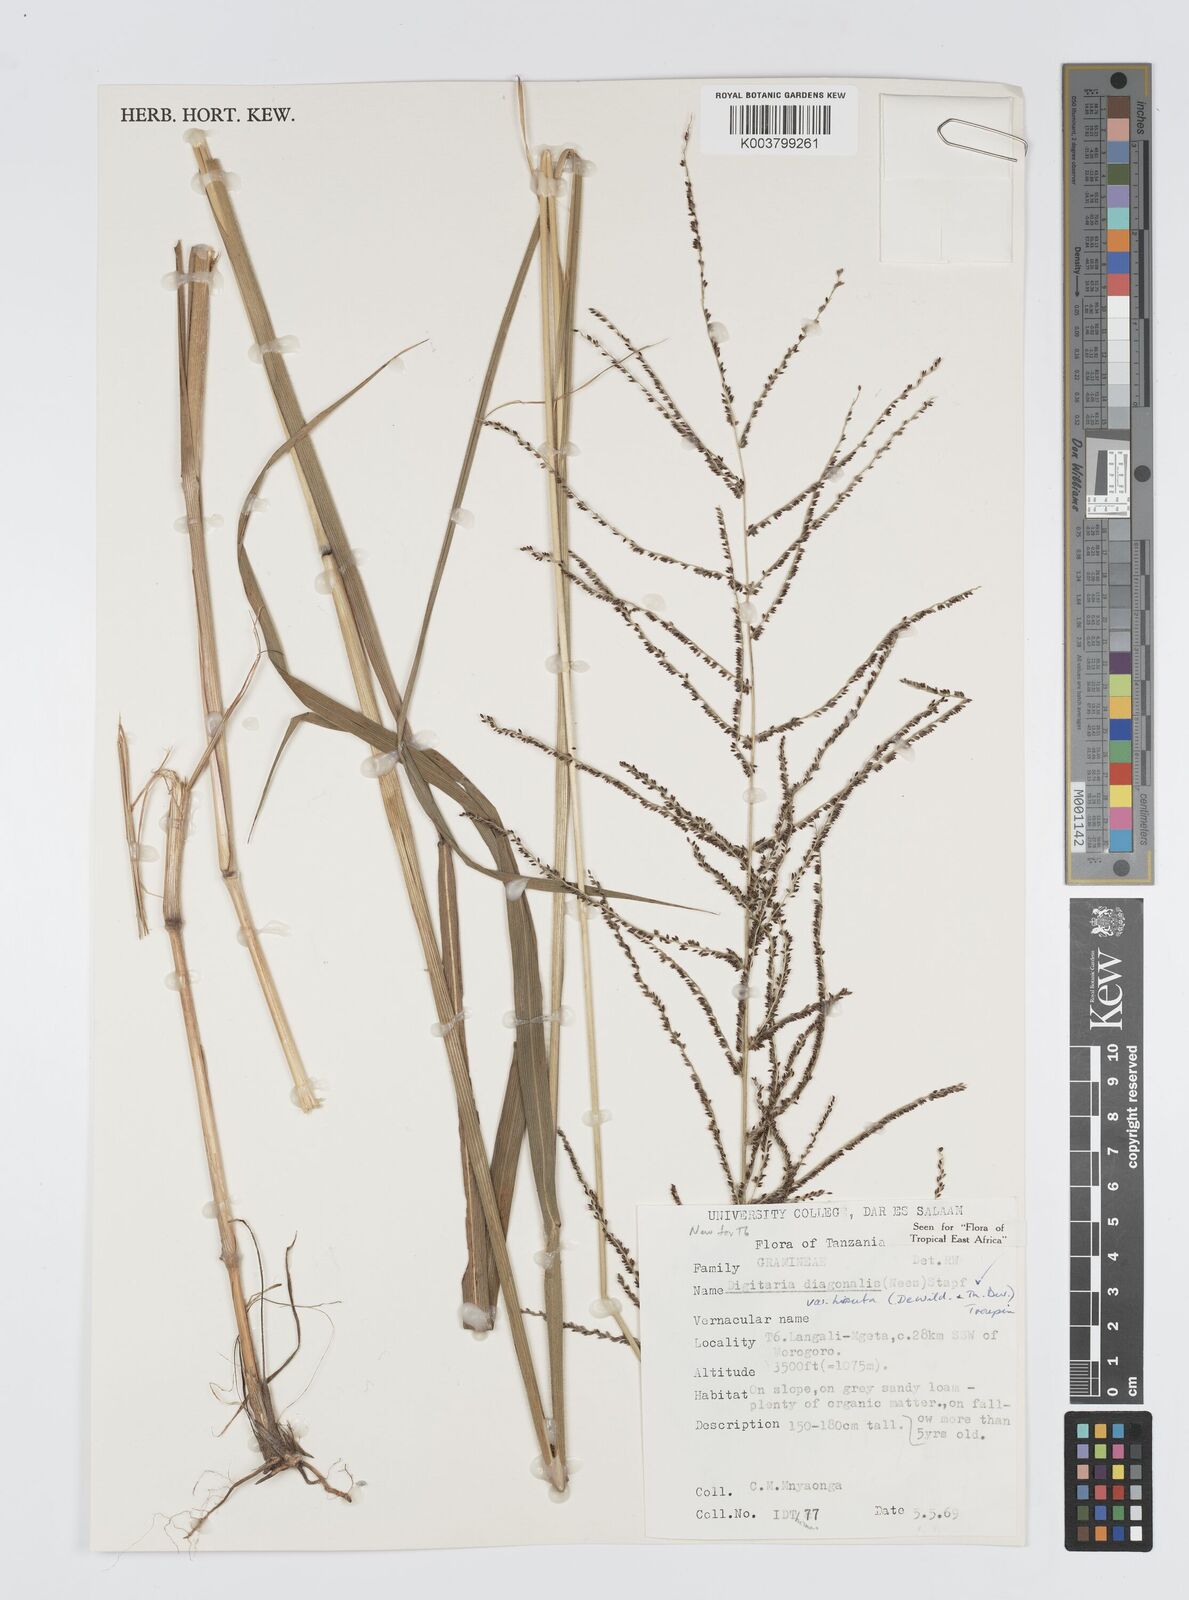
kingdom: Plantae
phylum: Tracheophyta
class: Liliopsida
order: Poales
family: Poaceae
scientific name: Poaceae
